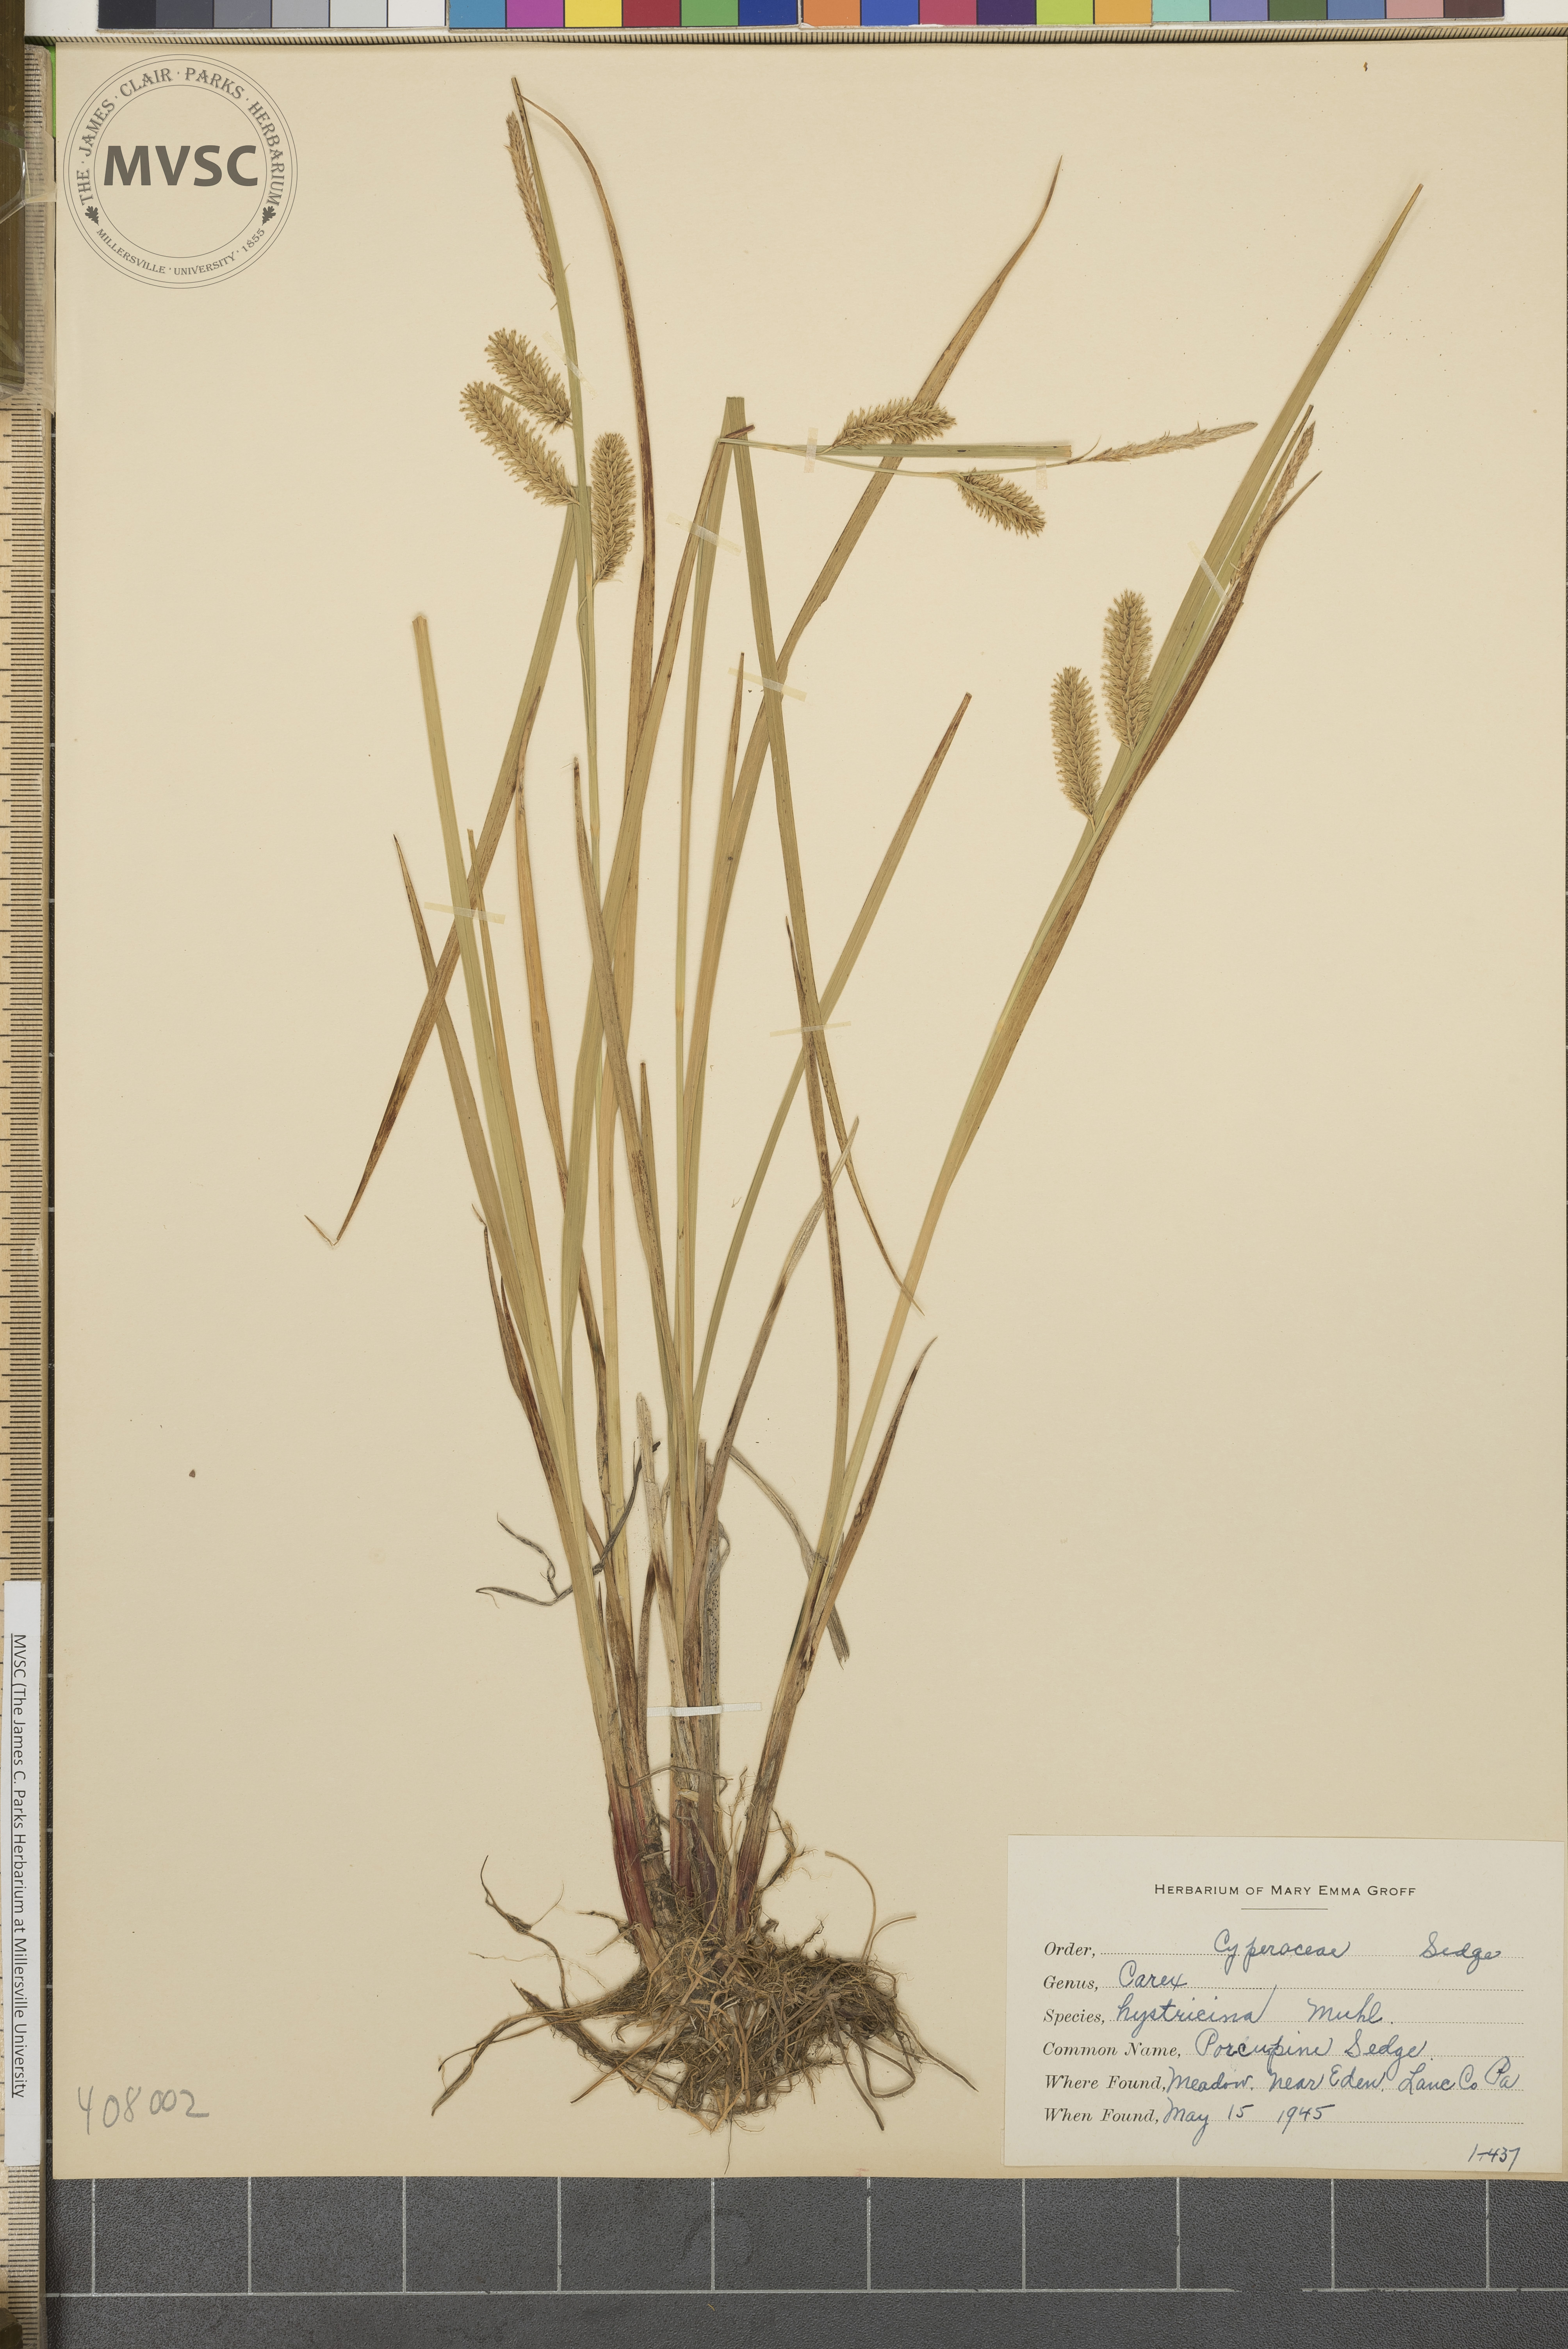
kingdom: Plantae
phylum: Tracheophyta
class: Liliopsida
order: Poales
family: Cyperaceae
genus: Carex
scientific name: Carex hystericina
